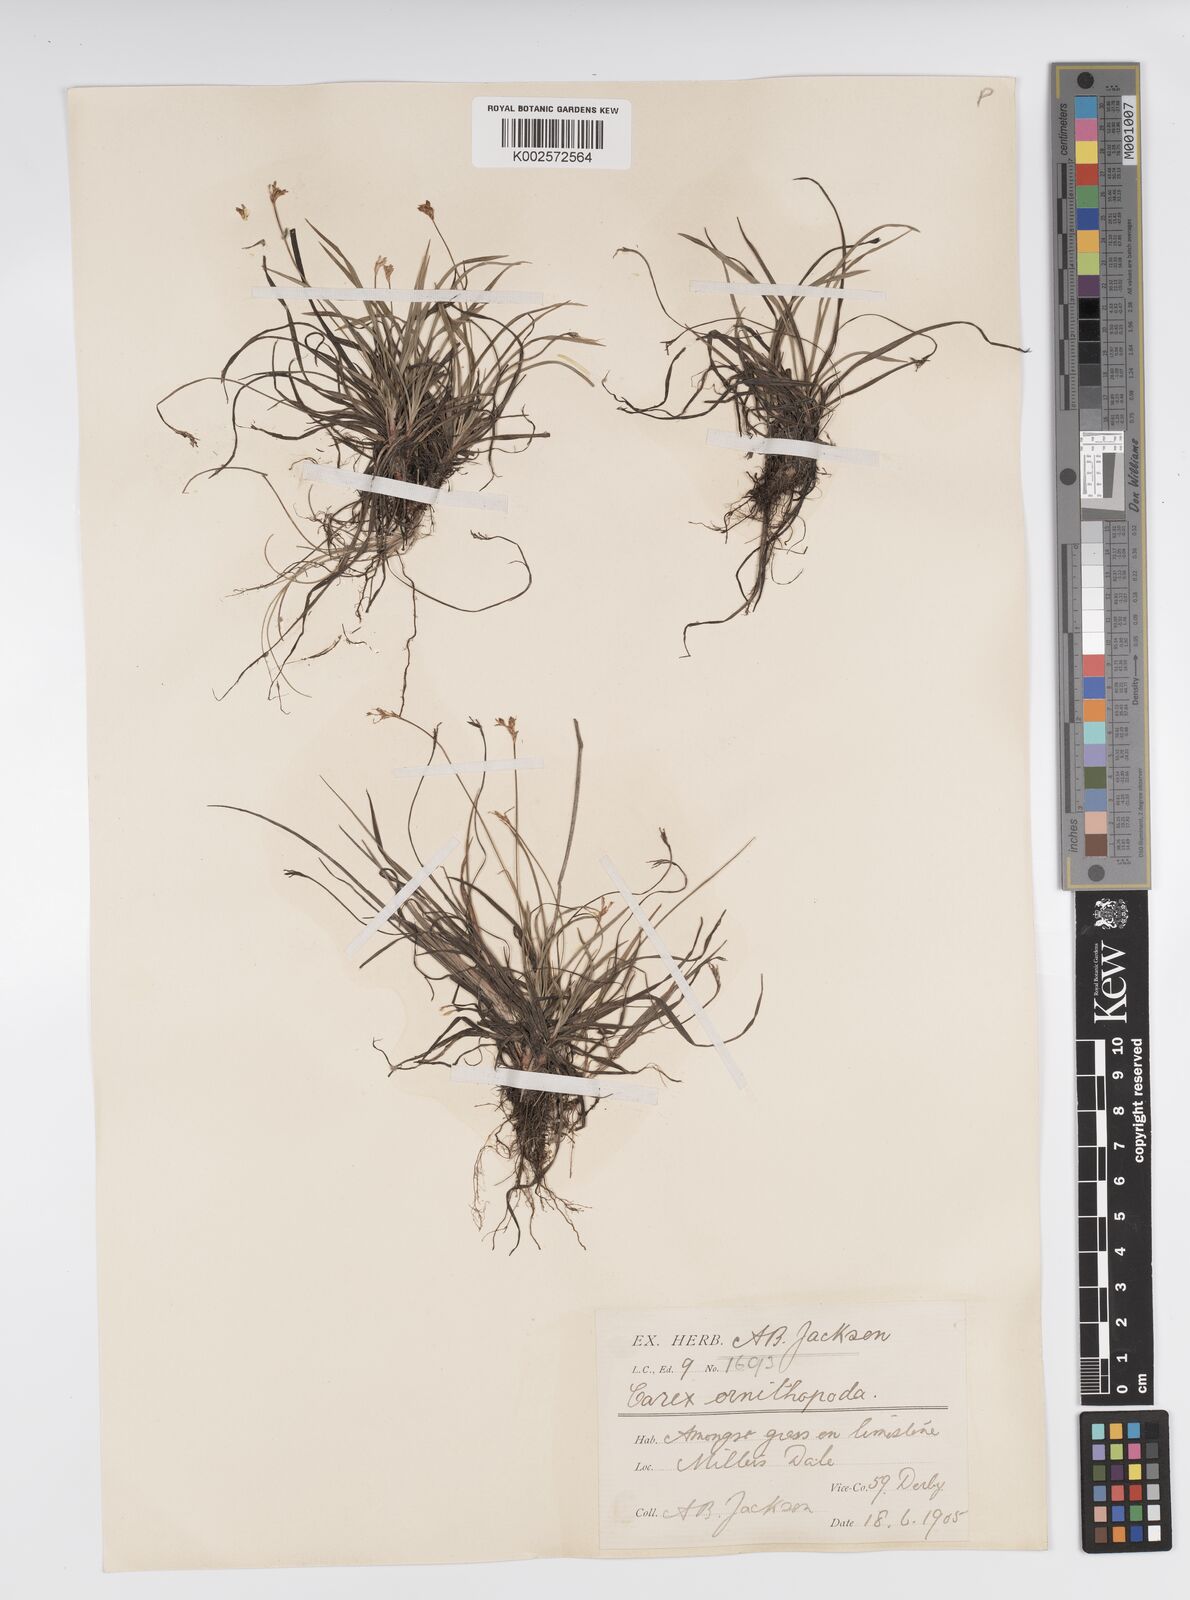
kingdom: Plantae
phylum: Tracheophyta
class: Liliopsida
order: Poales
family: Cyperaceae
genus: Carex
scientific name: Carex ornithopoda
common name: Bird's-foot sedge
